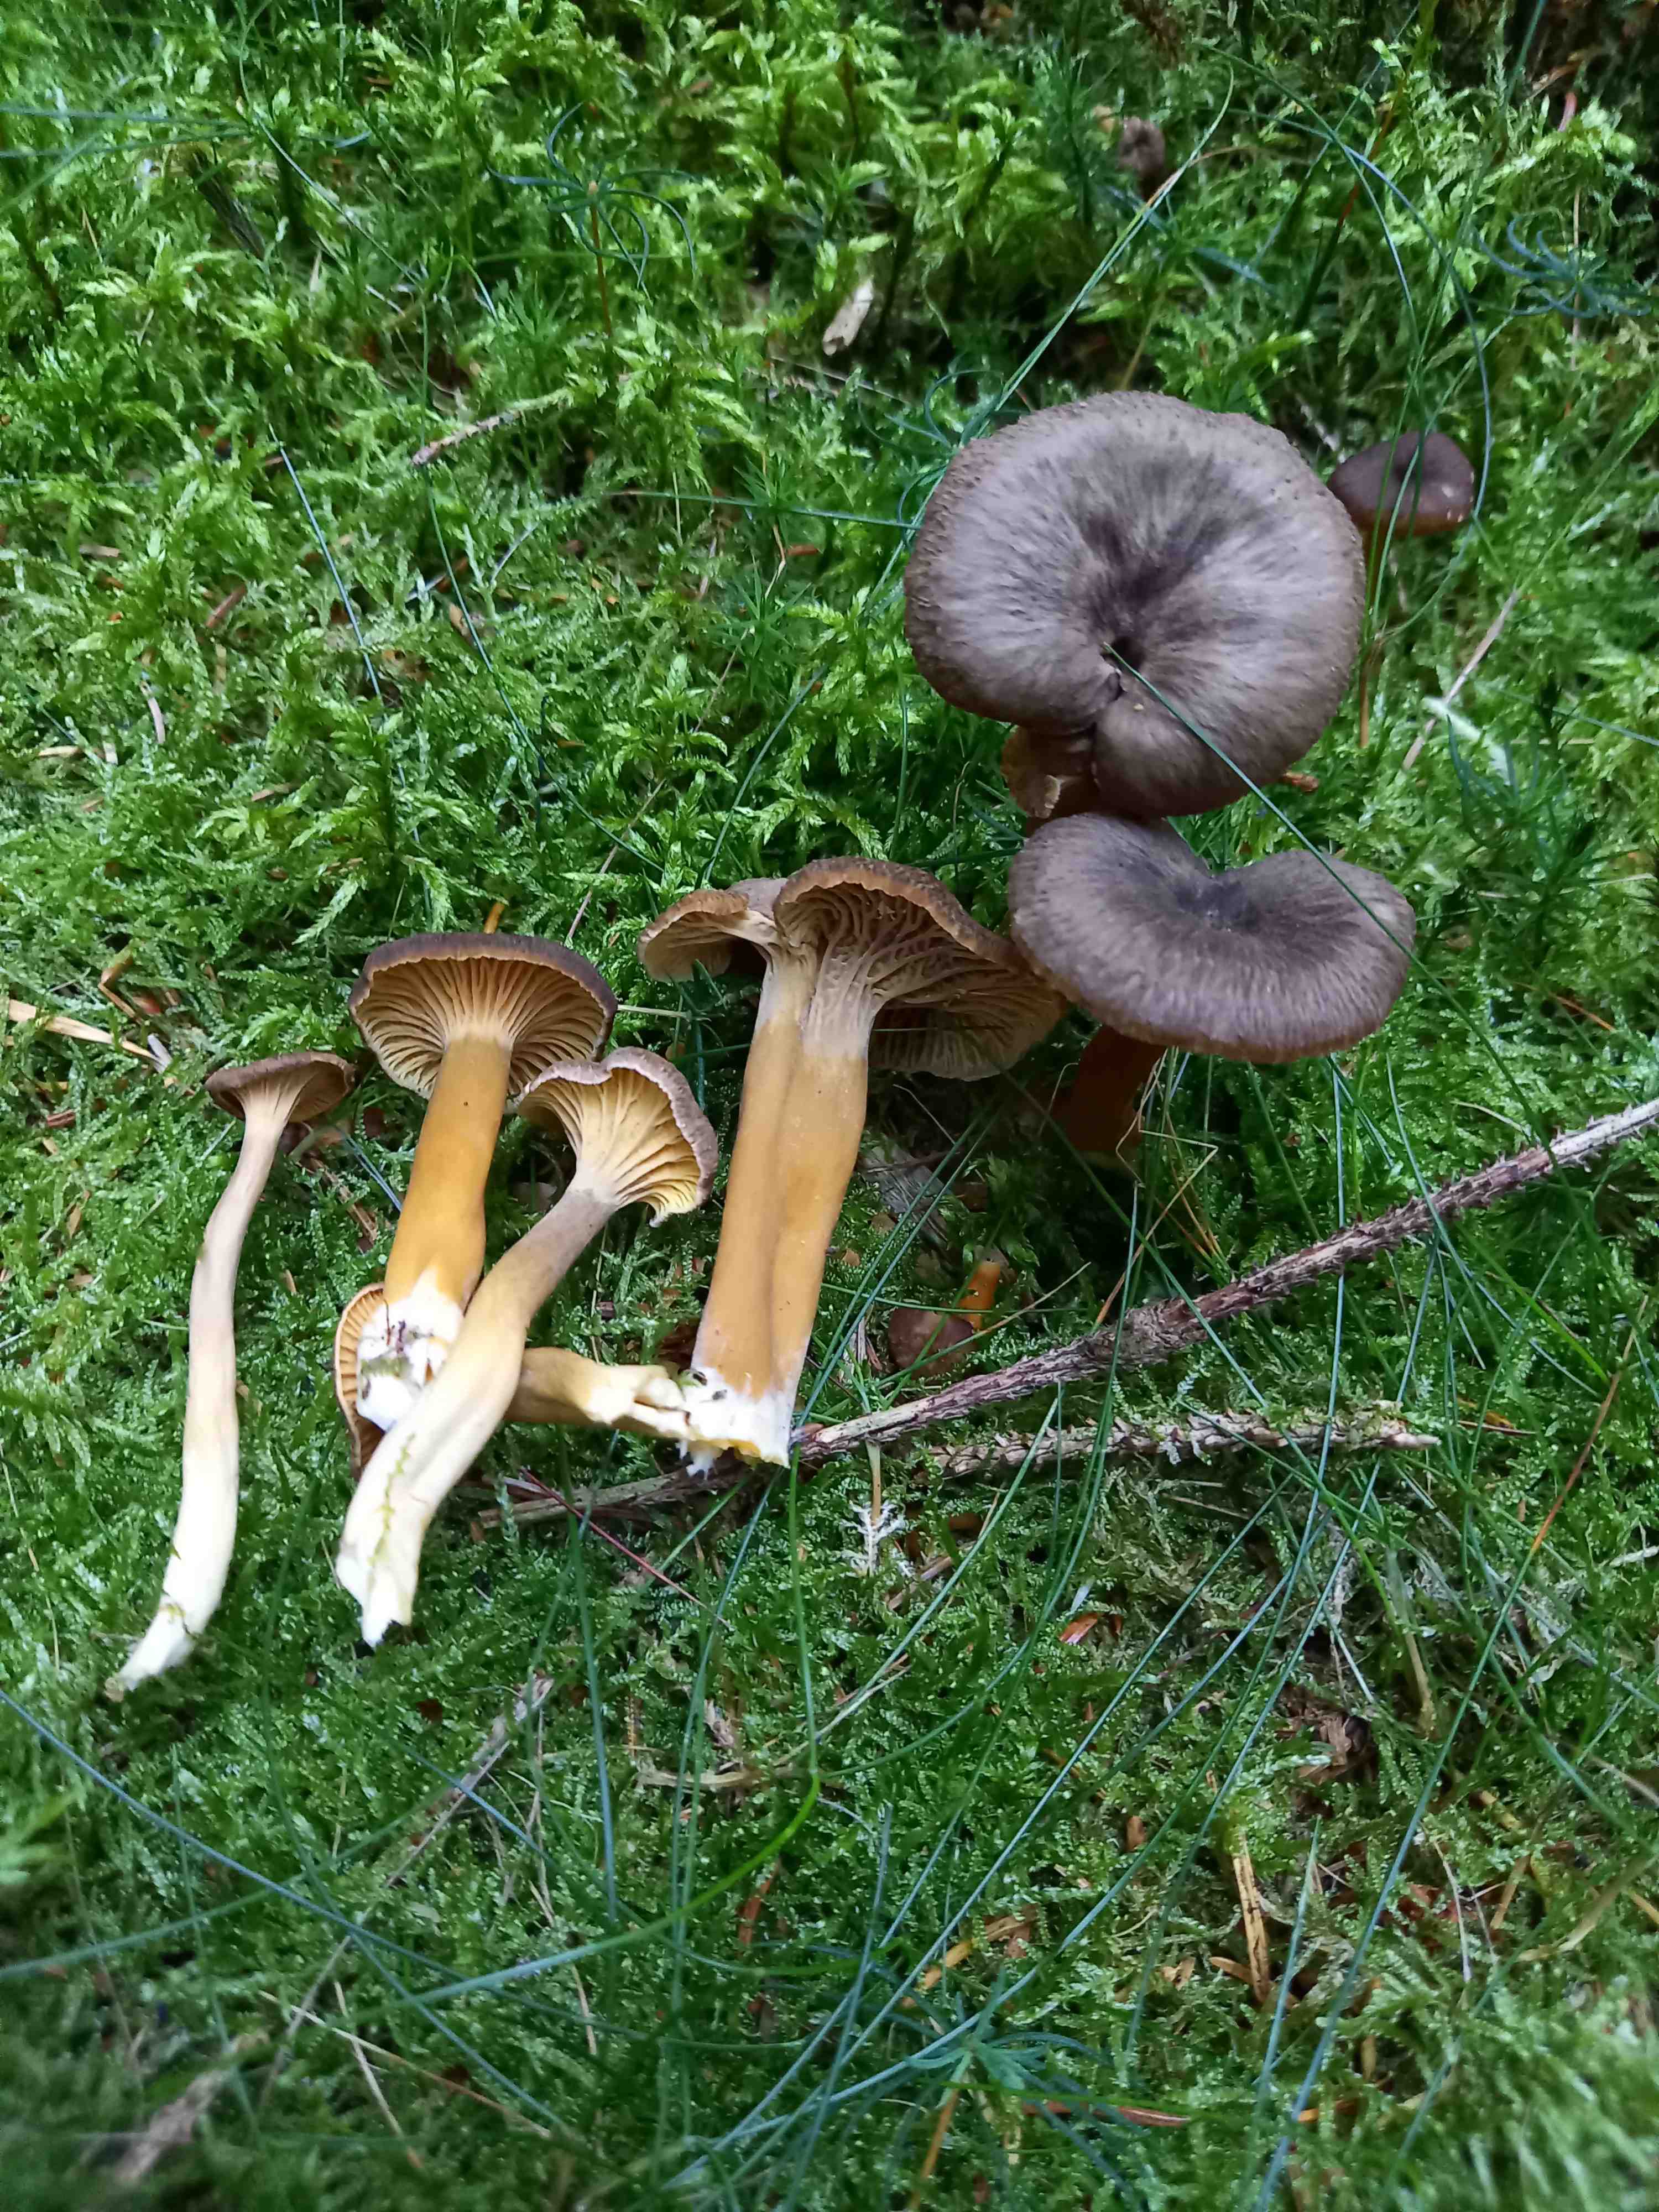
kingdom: Fungi
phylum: Basidiomycota
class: Agaricomycetes
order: Cantharellales
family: Hydnaceae
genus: Craterellus
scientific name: Craterellus tubaeformis
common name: tragt-kantarel
